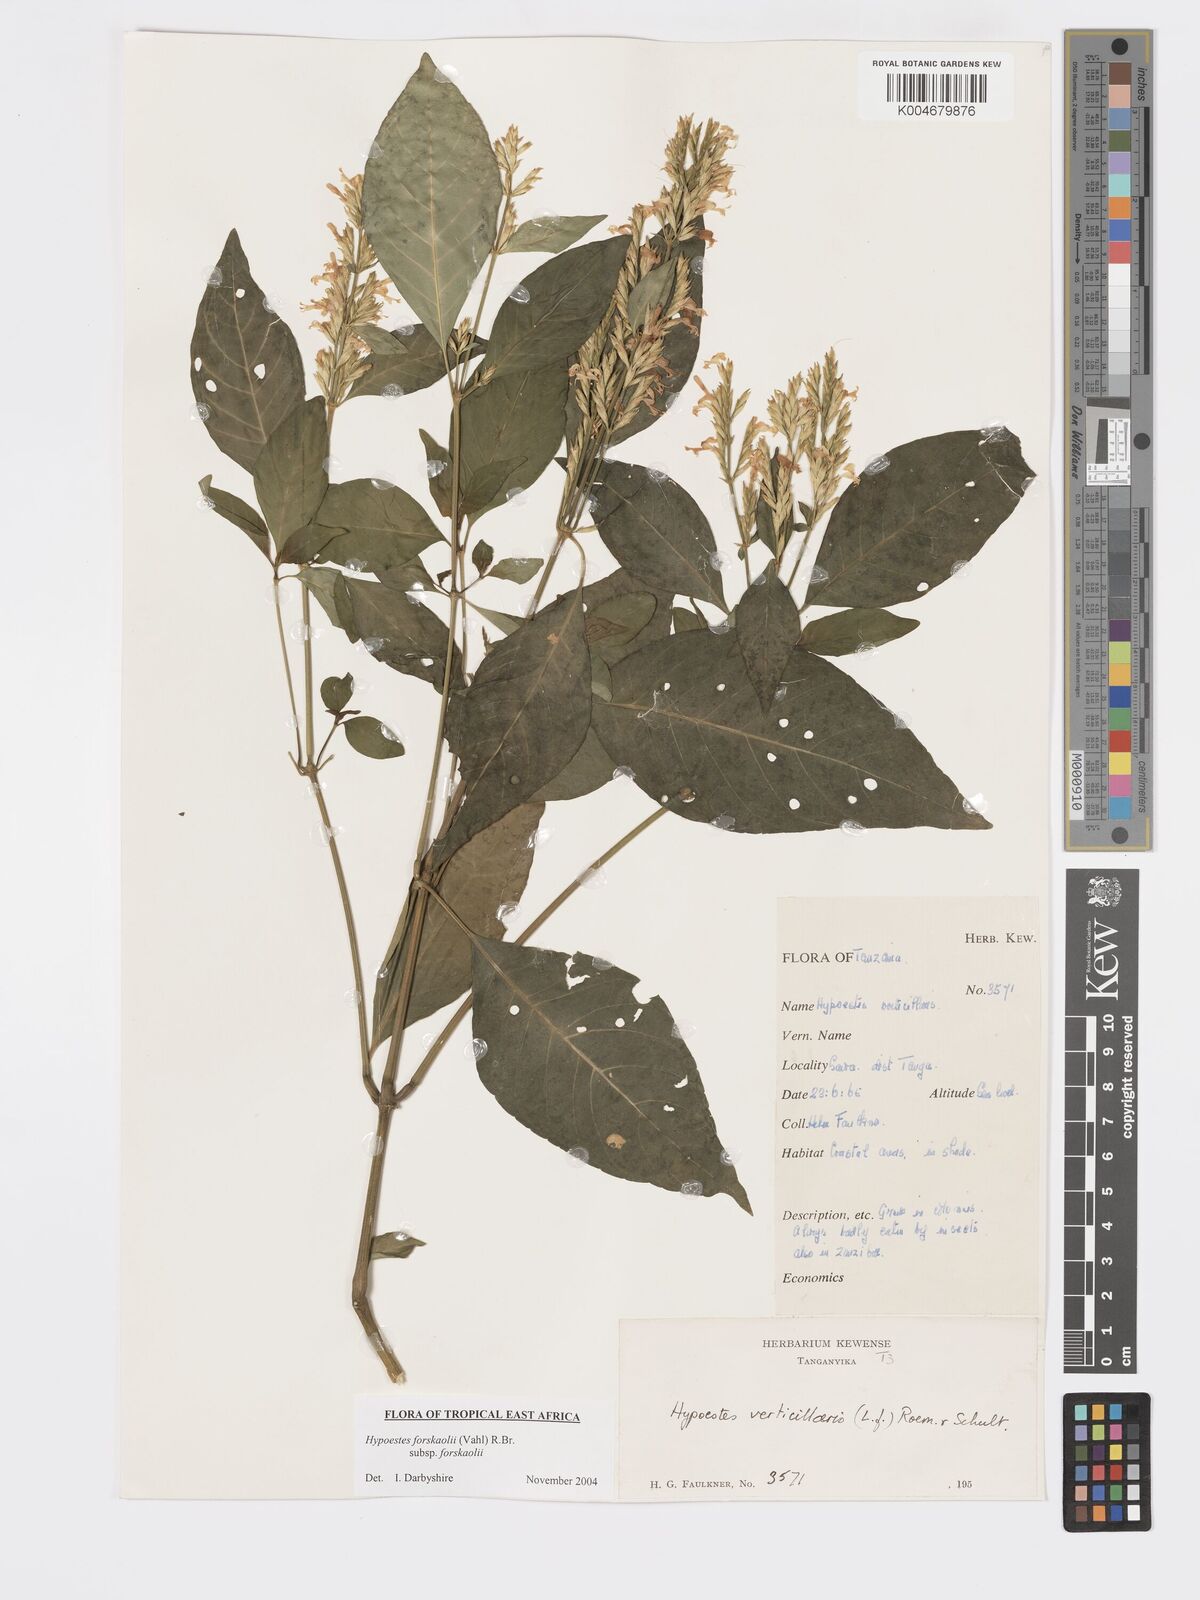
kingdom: Plantae
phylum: Tracheophyta
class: Magnoliopsida
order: Lamiales
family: Acanthaceae
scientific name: Acanthaceae
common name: Acanthaceae
